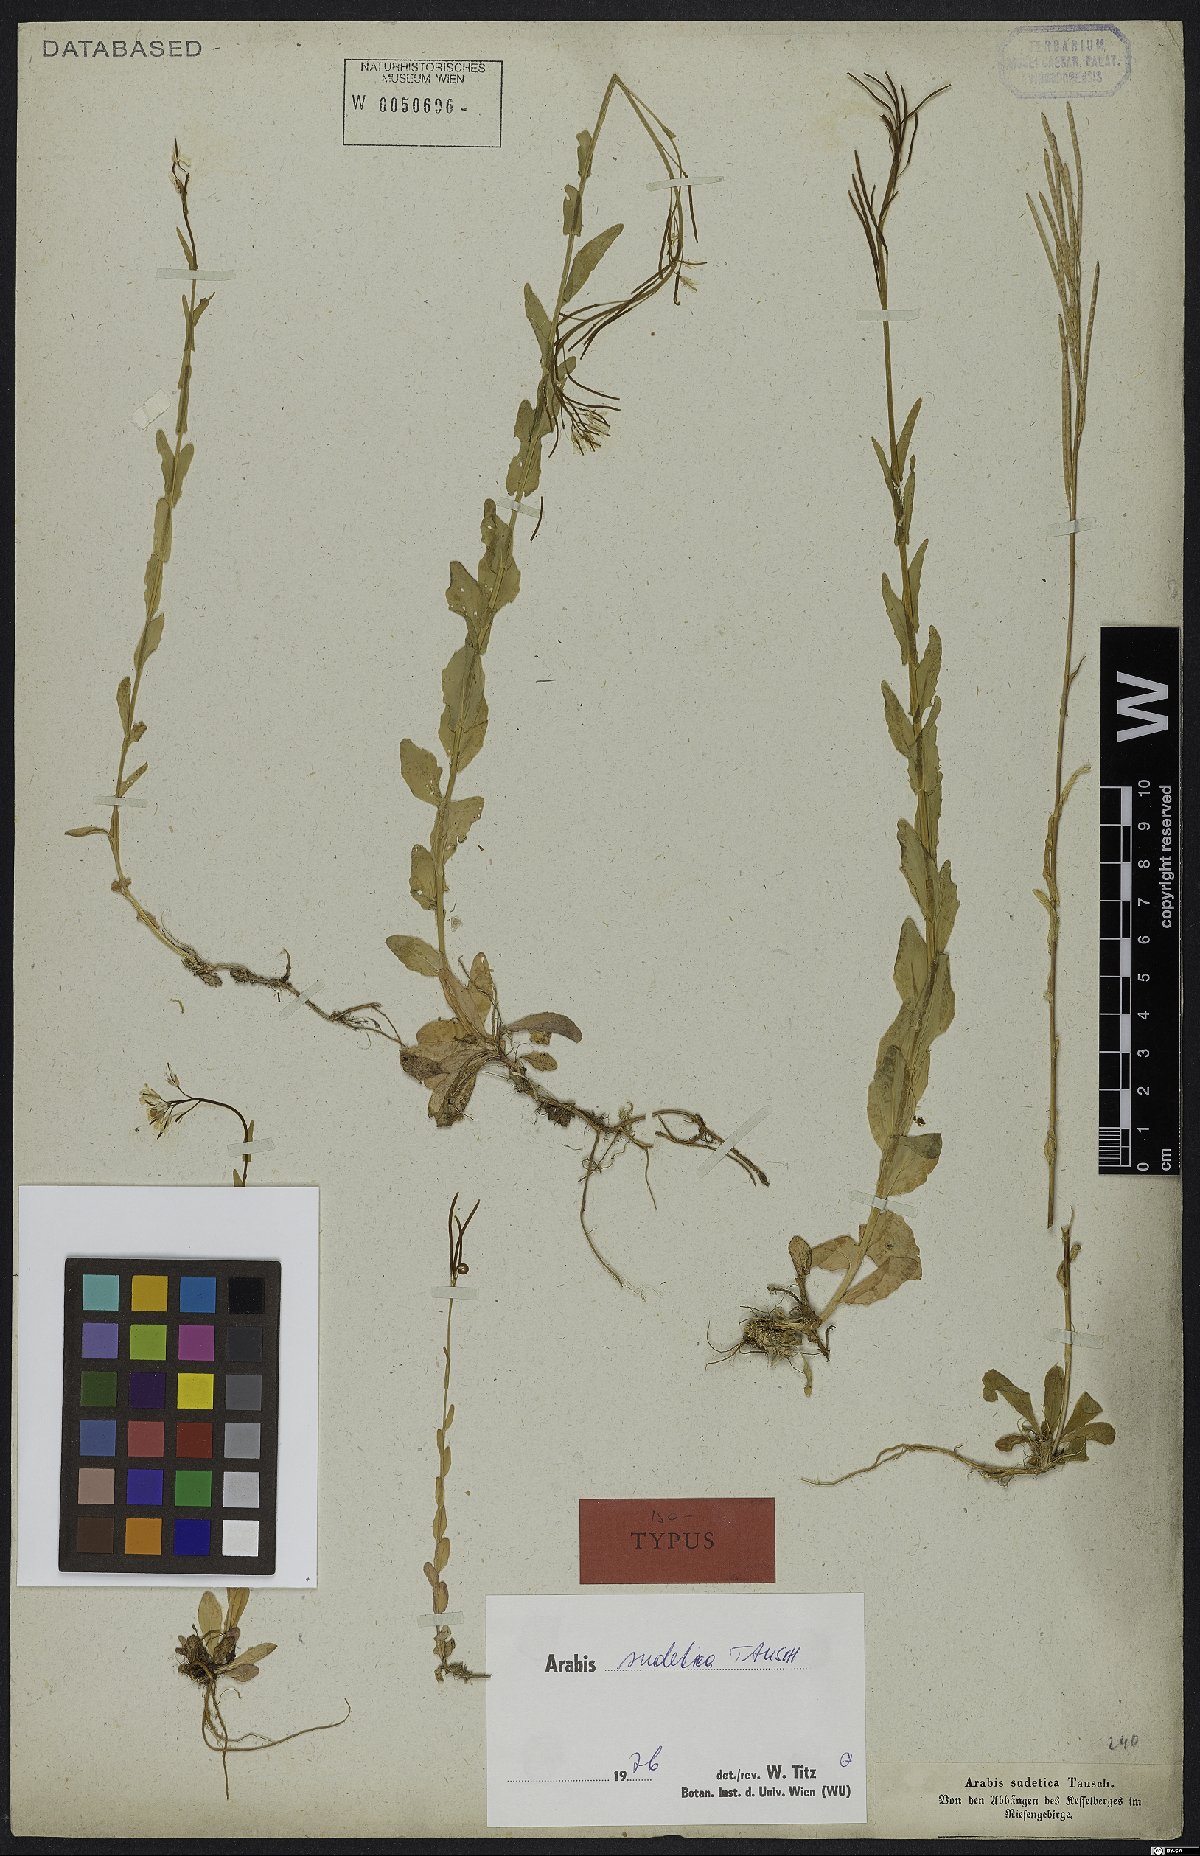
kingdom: Plantae
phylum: Tracheophyta
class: Magnoliopsida
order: Brassicales
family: Brassicaceae
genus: Arabis
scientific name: Arabis sudetica
